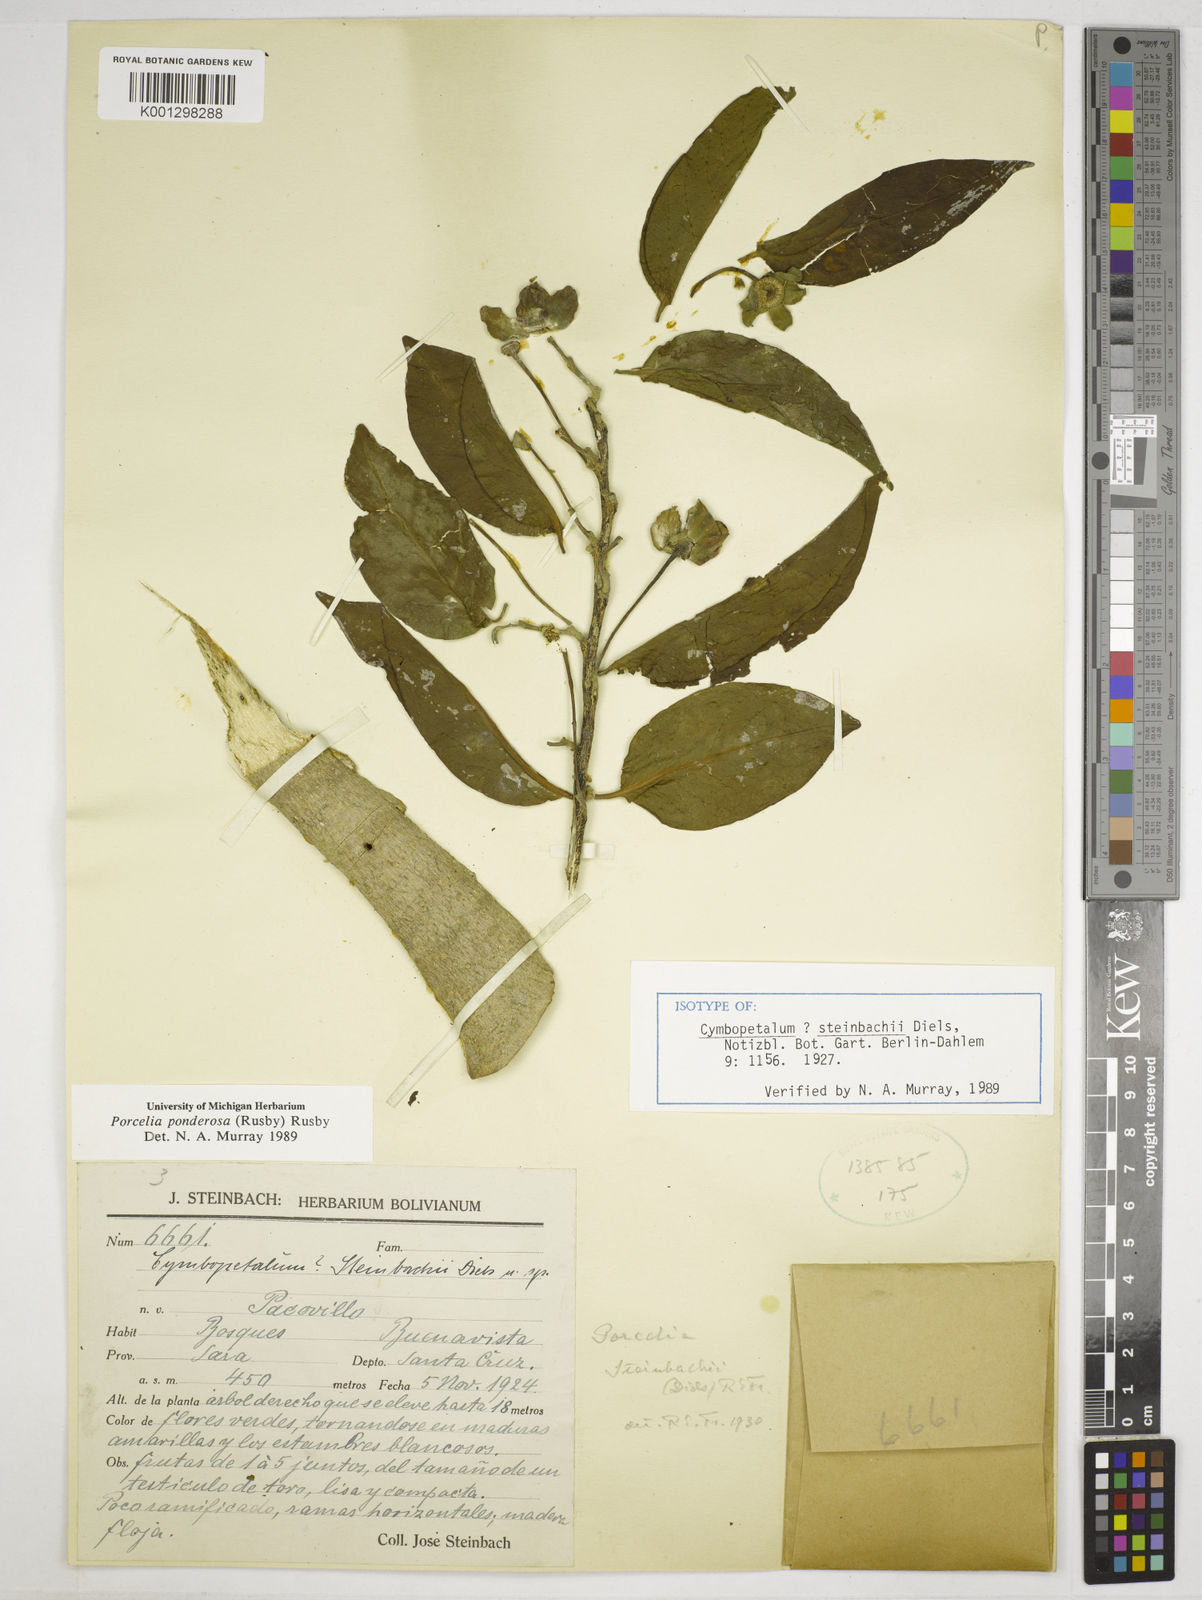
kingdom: Plantae
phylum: Tracheophyta
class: Magnoliopsida
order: Magnoliales
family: Annonaceae
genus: Porcelia
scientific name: Porcelia steinbachii
